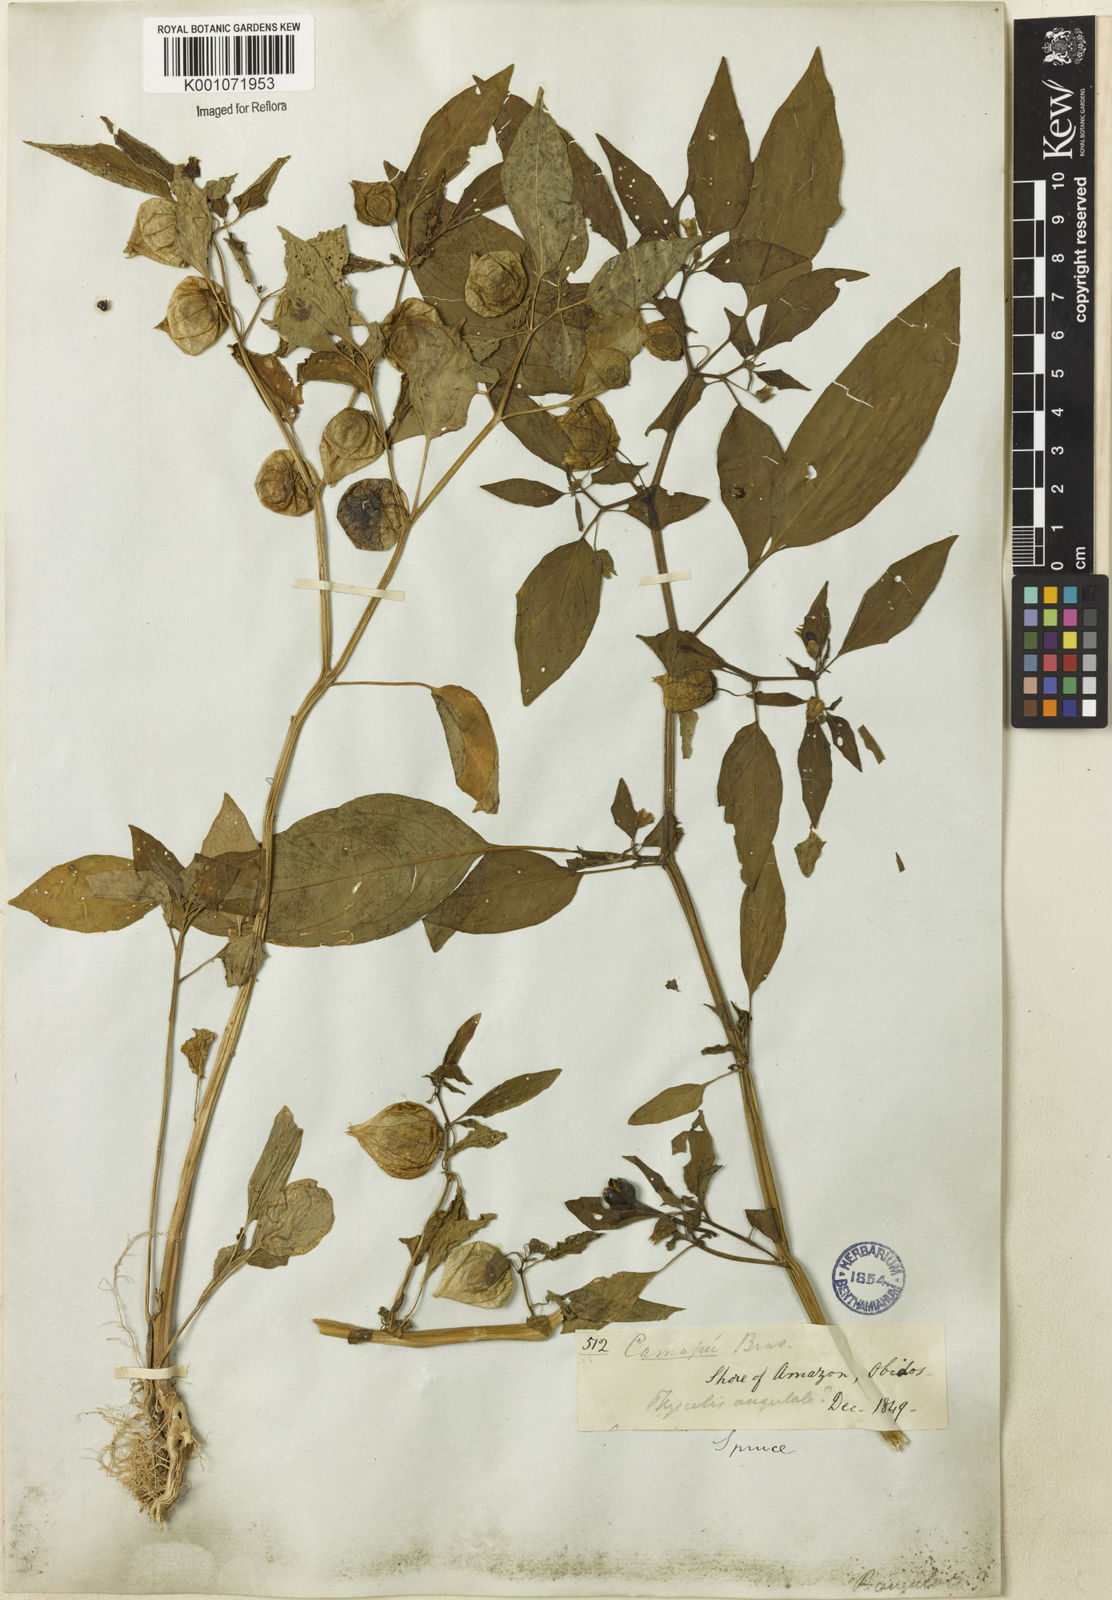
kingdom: Plantae
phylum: Tracheophyta
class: Magnoliopsida
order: Solanales
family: Solanaceae
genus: Physalis
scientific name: Physalis angulata
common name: Angular winter-cherry
